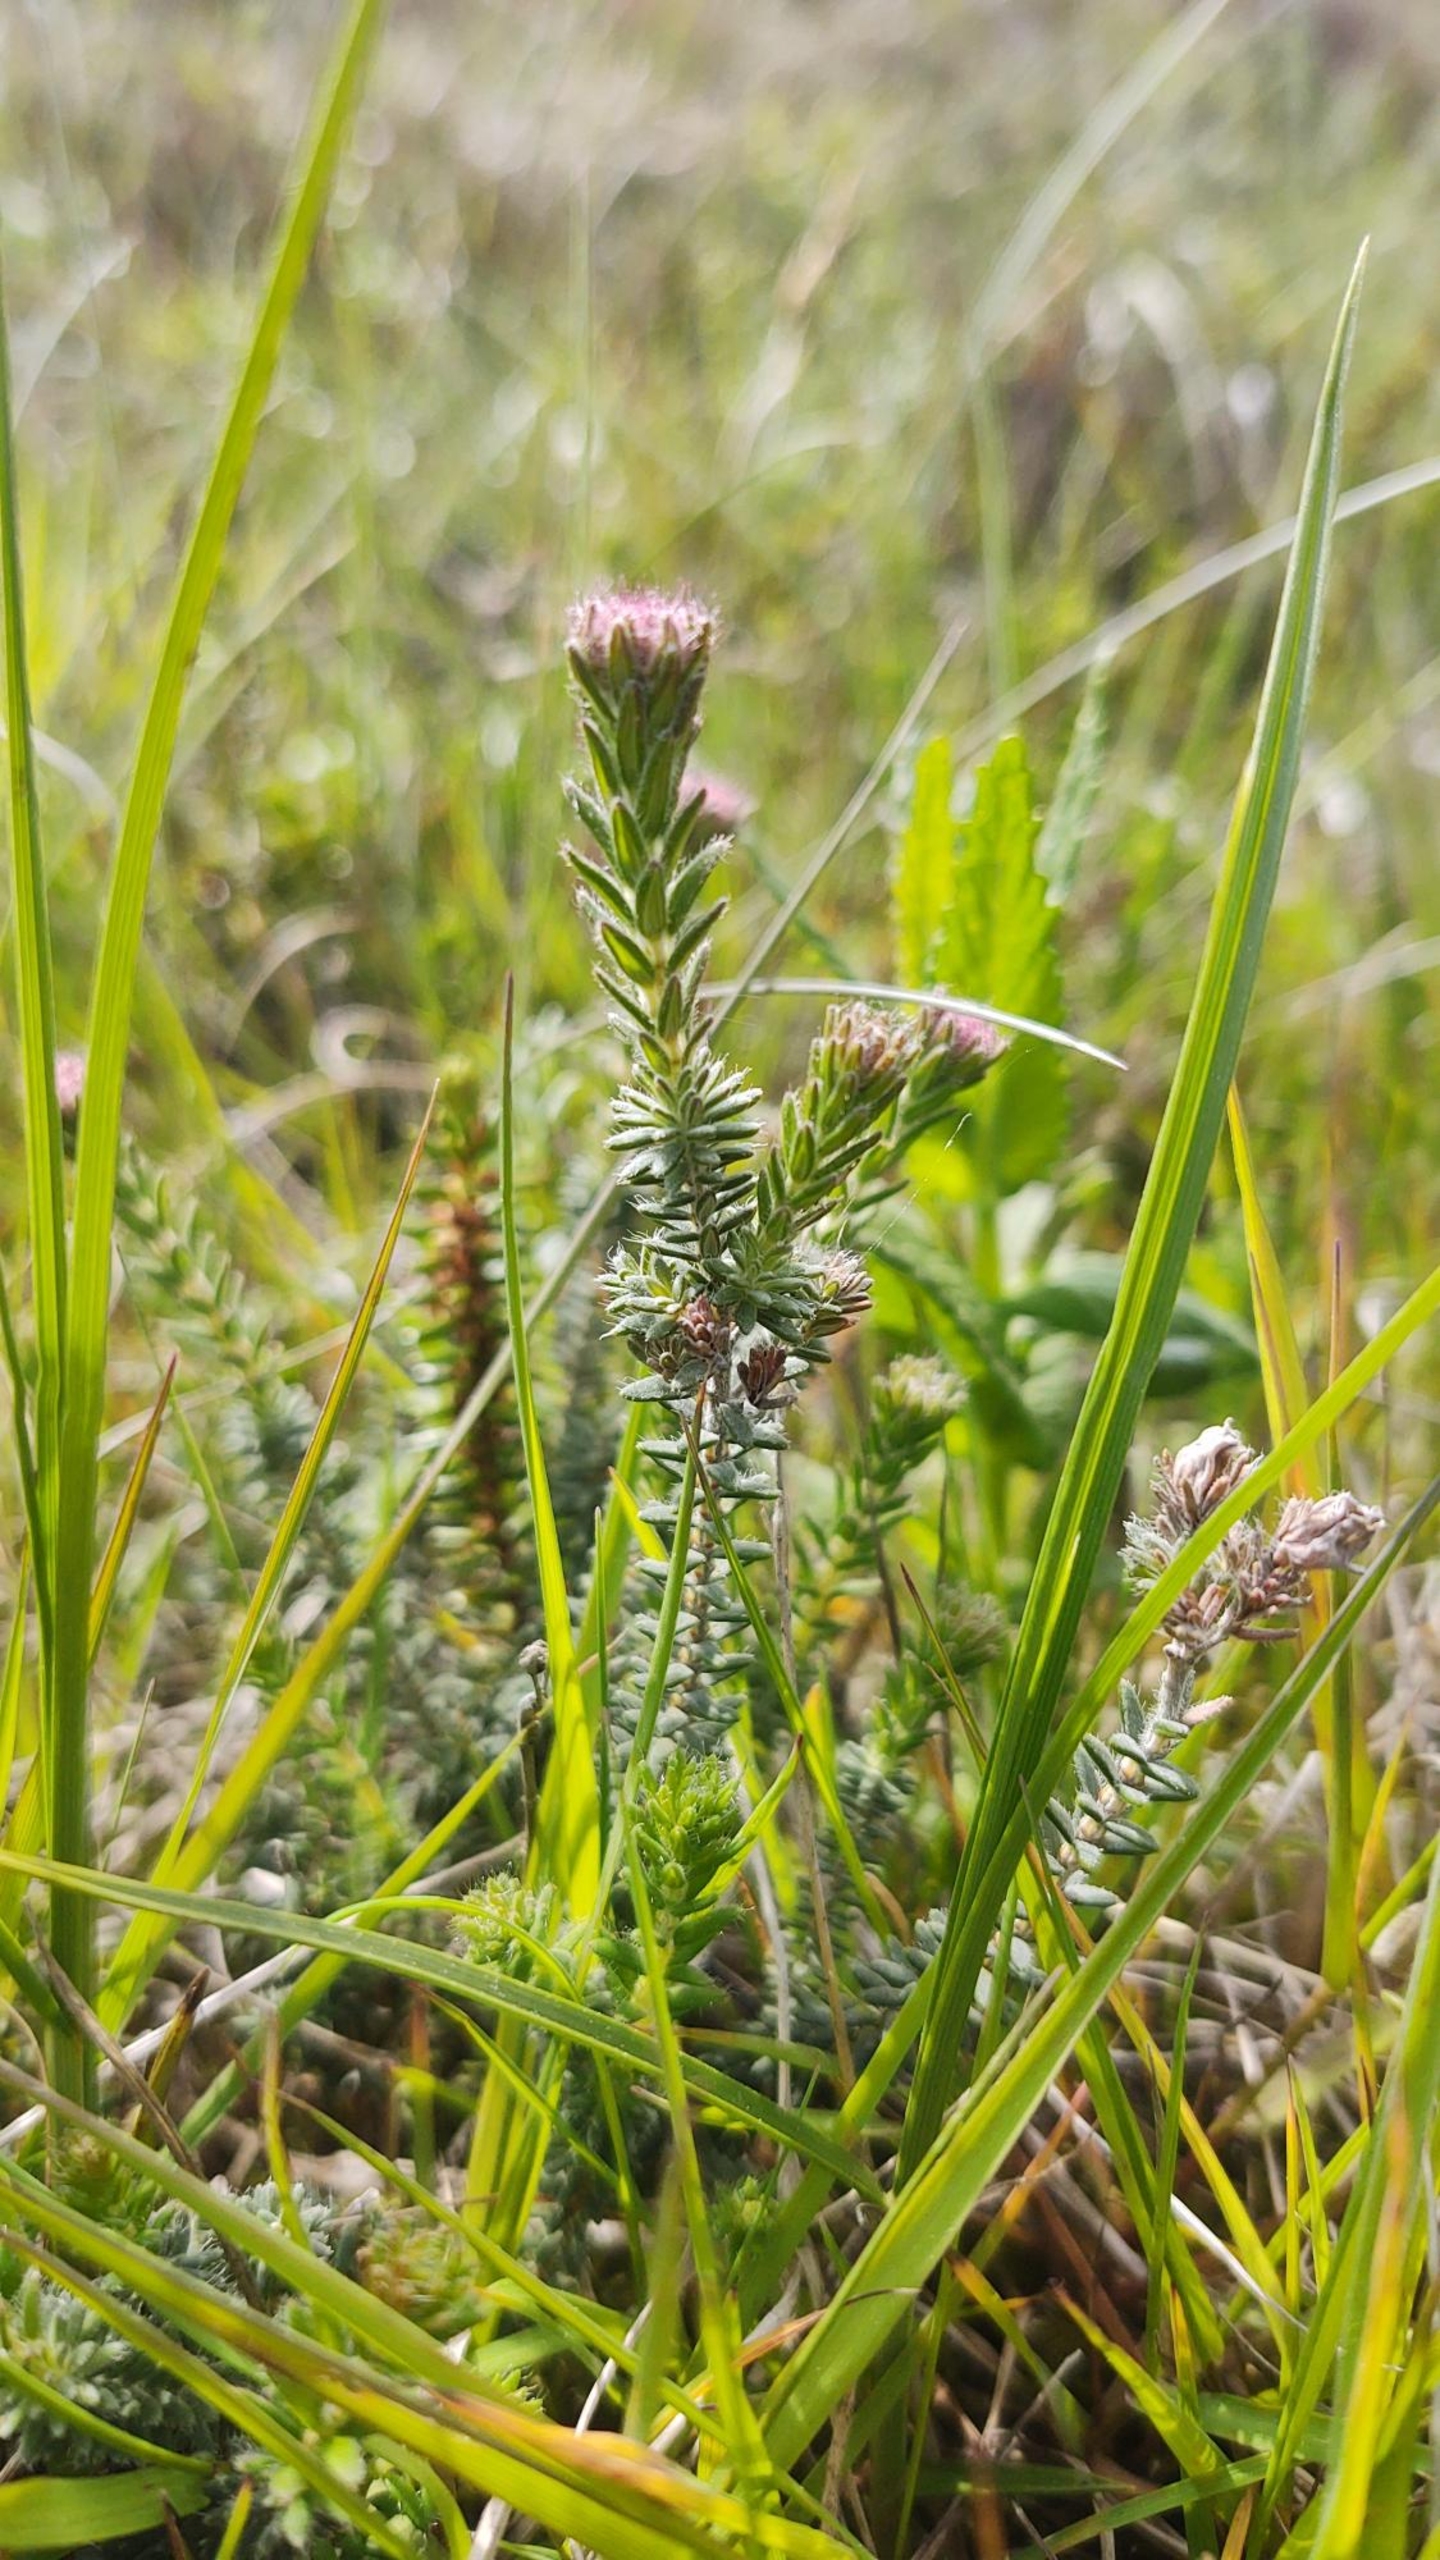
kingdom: Plantae
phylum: Tracheophyta
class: Magnoliopsida
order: Ericales
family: Ericaceae
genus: Erica
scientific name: Erica tetralix
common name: Klokkelyng
